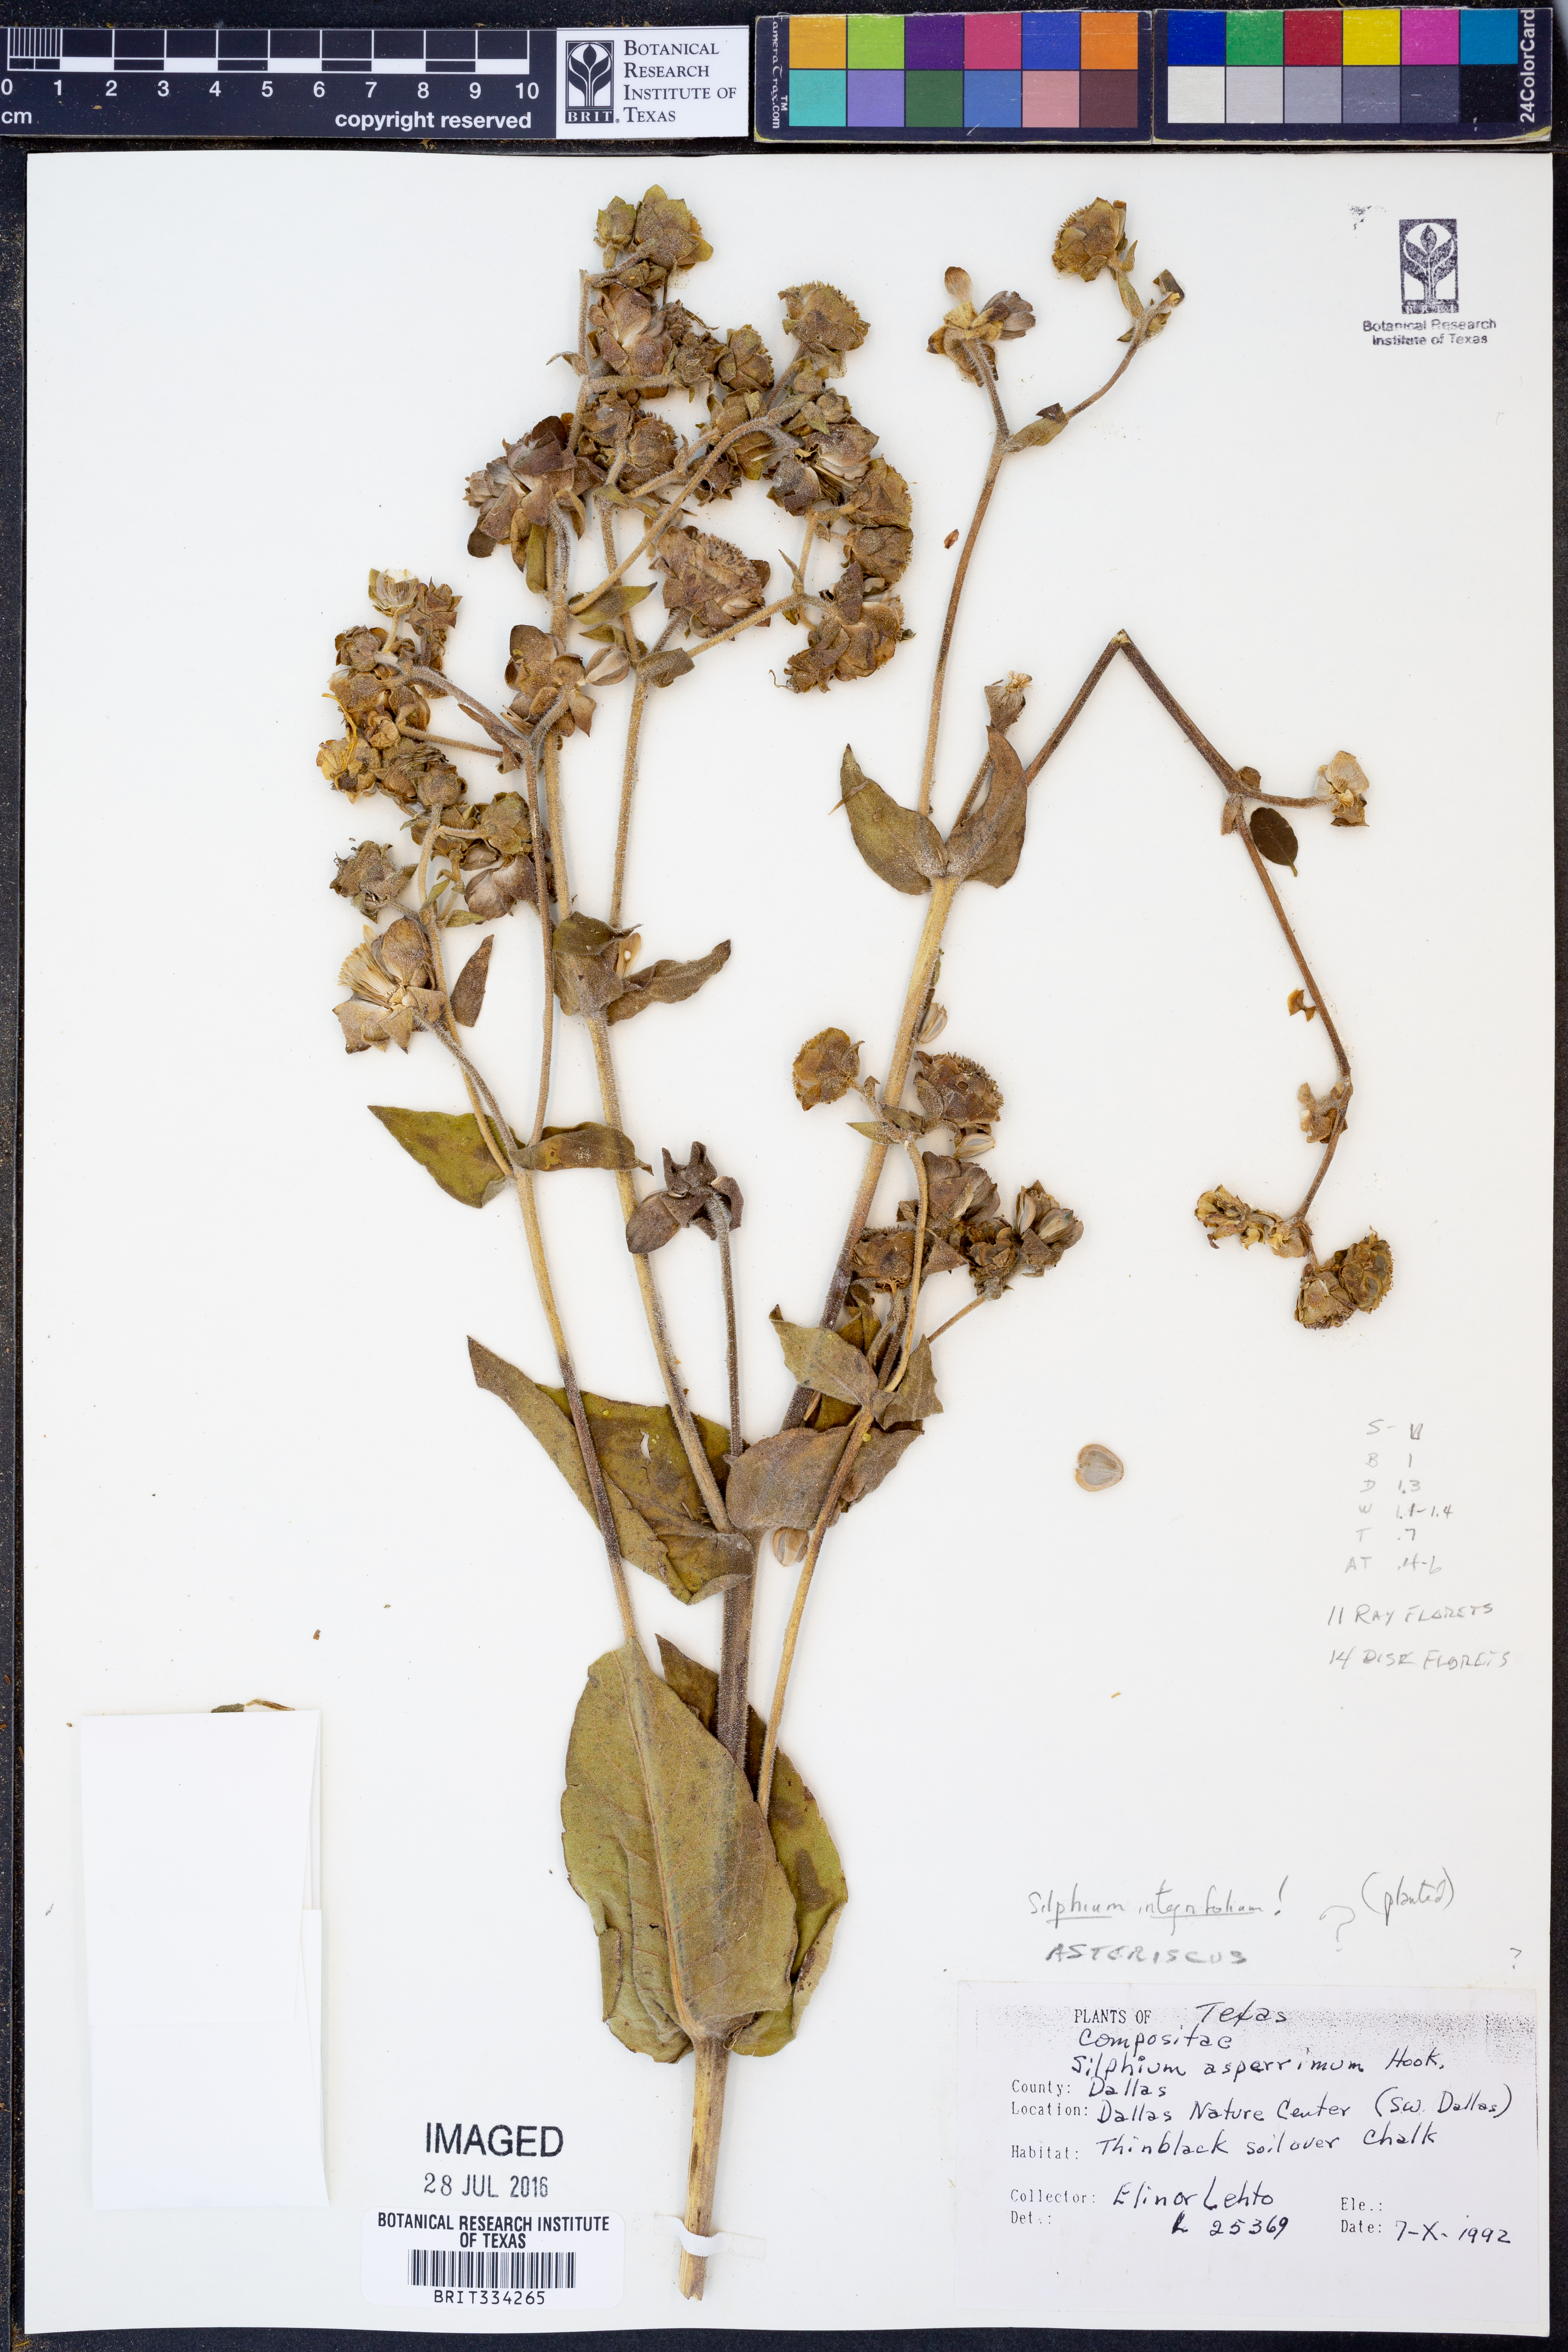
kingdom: Plantae
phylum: Tracheophyta
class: Magnoliopsida
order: Asterales
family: Asteraceae
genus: Silphium
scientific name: Silphium integrifolium
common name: Whole-leaf rosinweed
